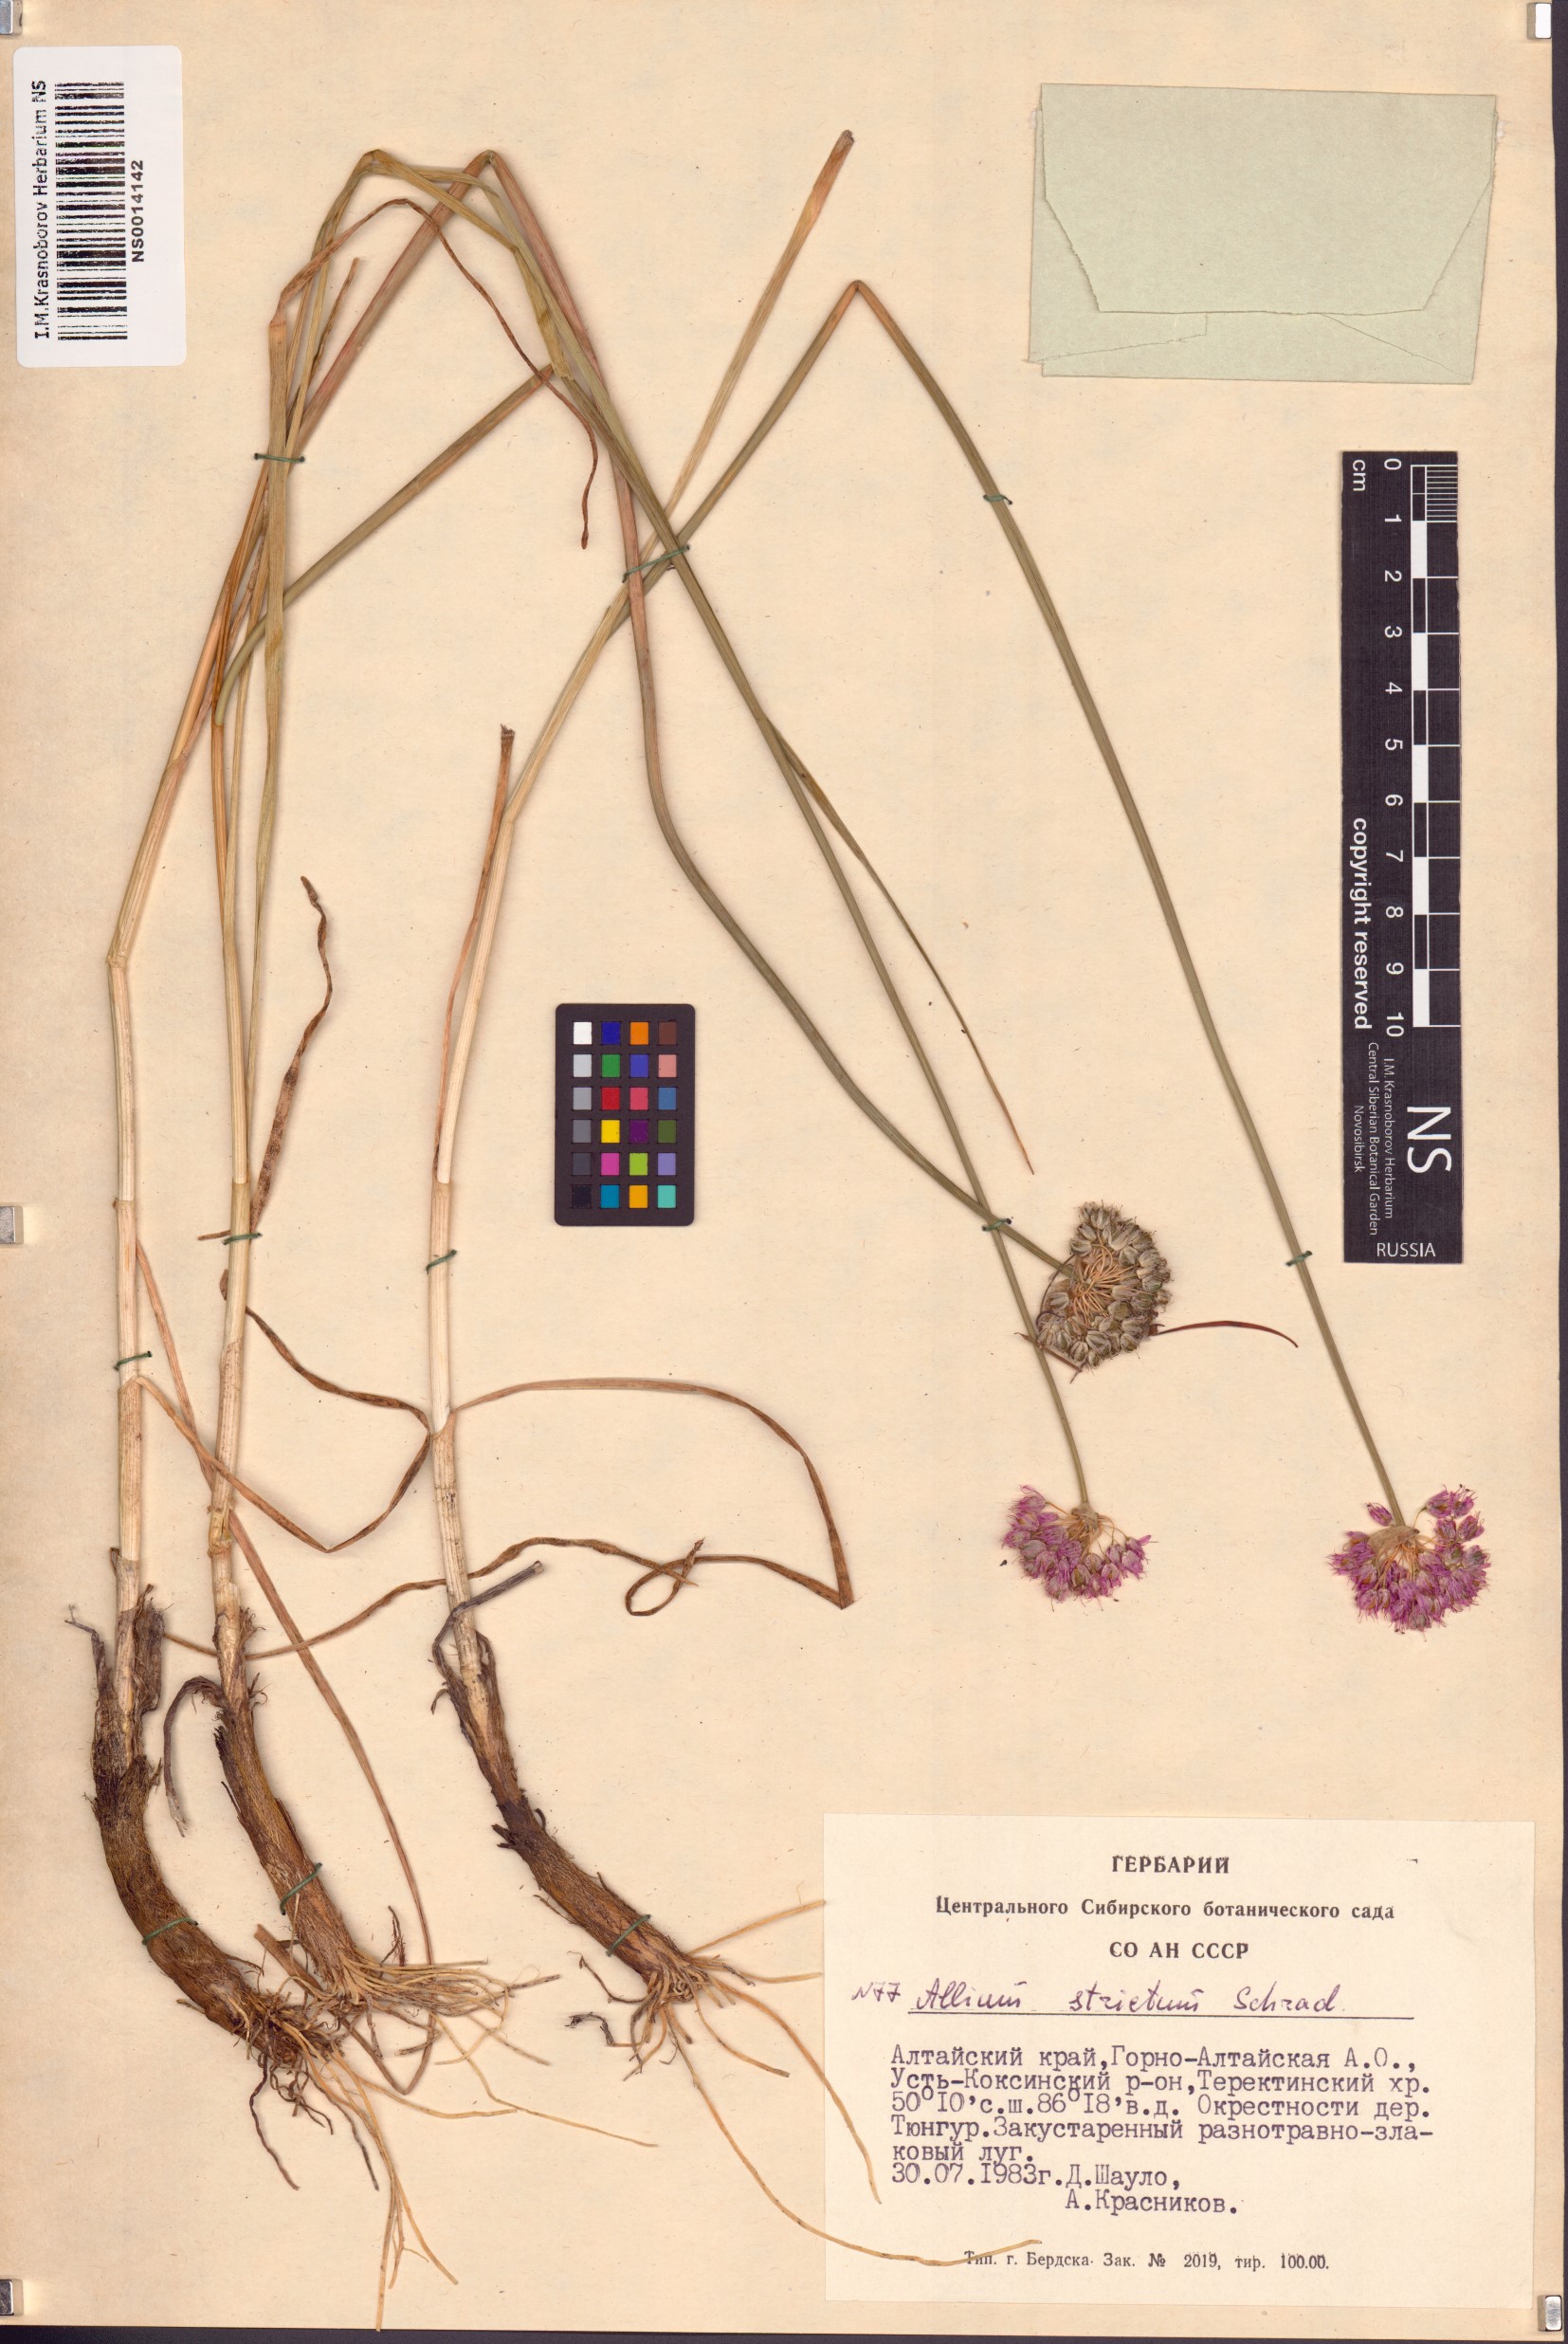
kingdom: Plantae
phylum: Tracheophyta
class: Liliopsida
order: Asparagales
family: Amaryllidaceae
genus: Allium
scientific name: Allium strictum
